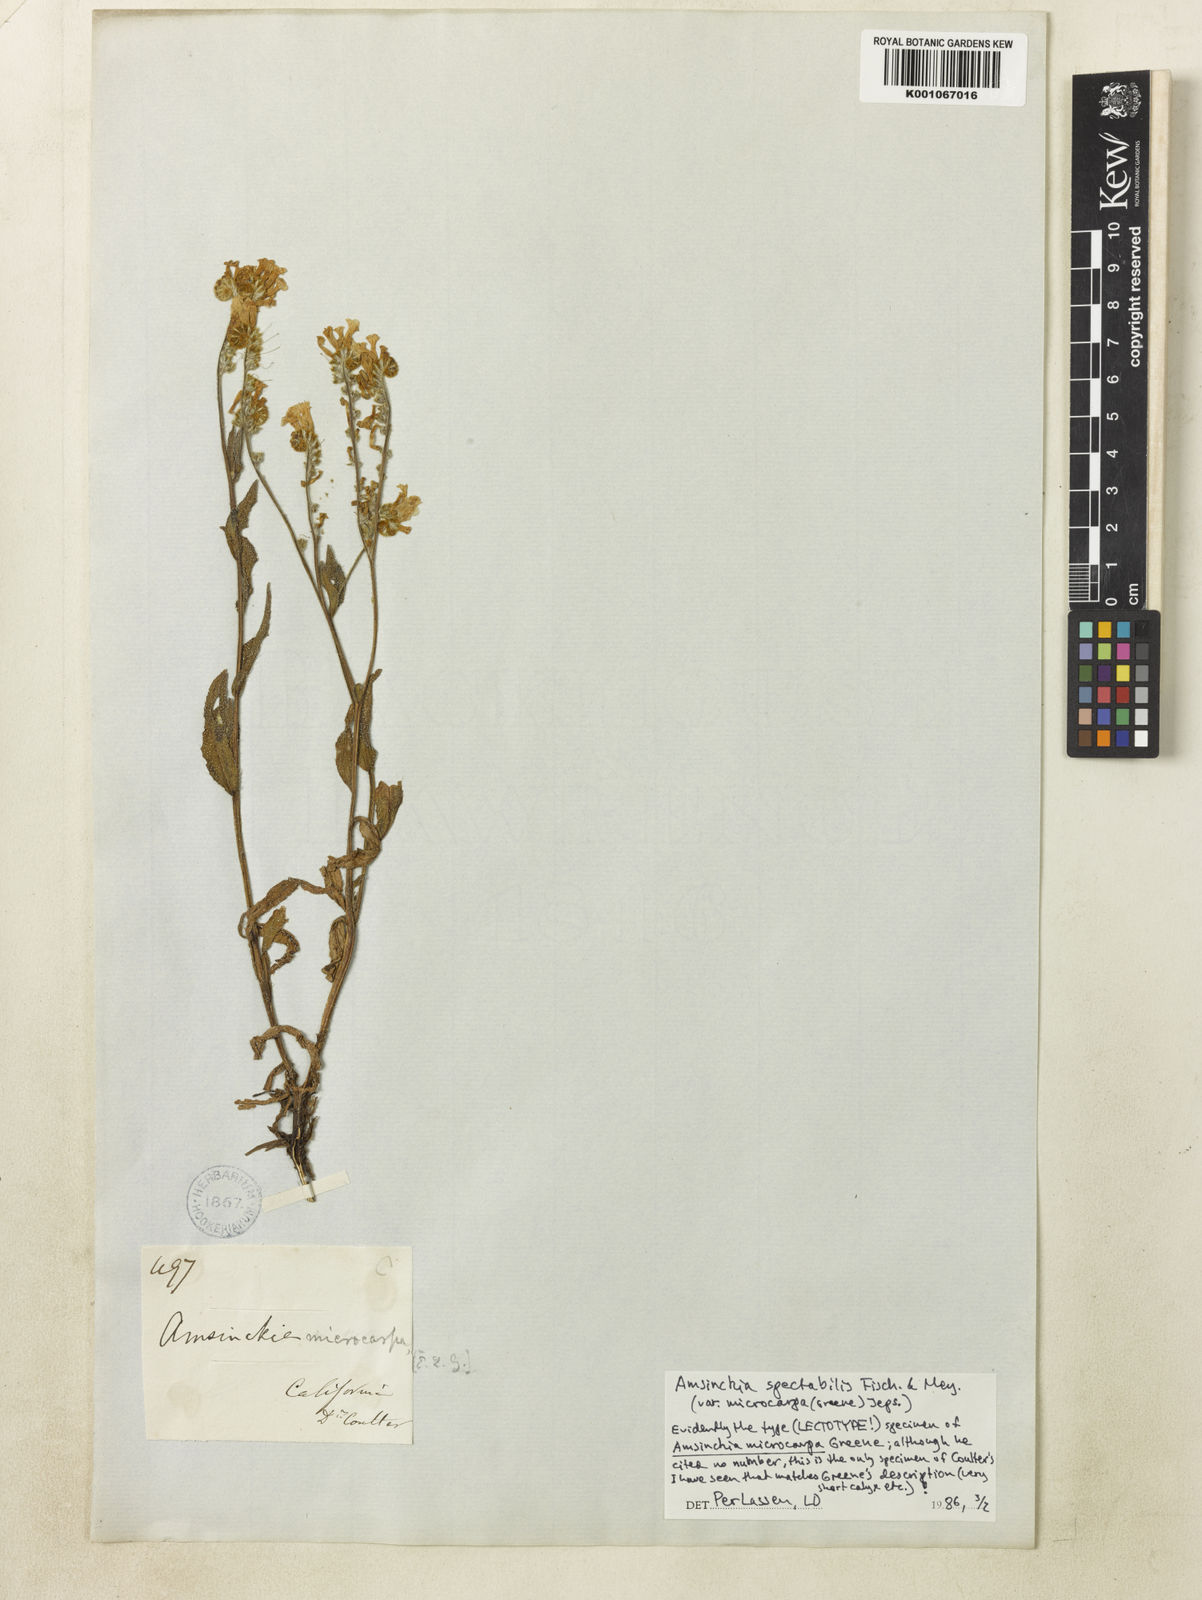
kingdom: Plantae
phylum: Tracheophyta
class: Magnoliopsida
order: Boraginales
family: Boraginaceae
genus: Amsinckia
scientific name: Amsinckia spectabilis
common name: Seaside fiddleneck
